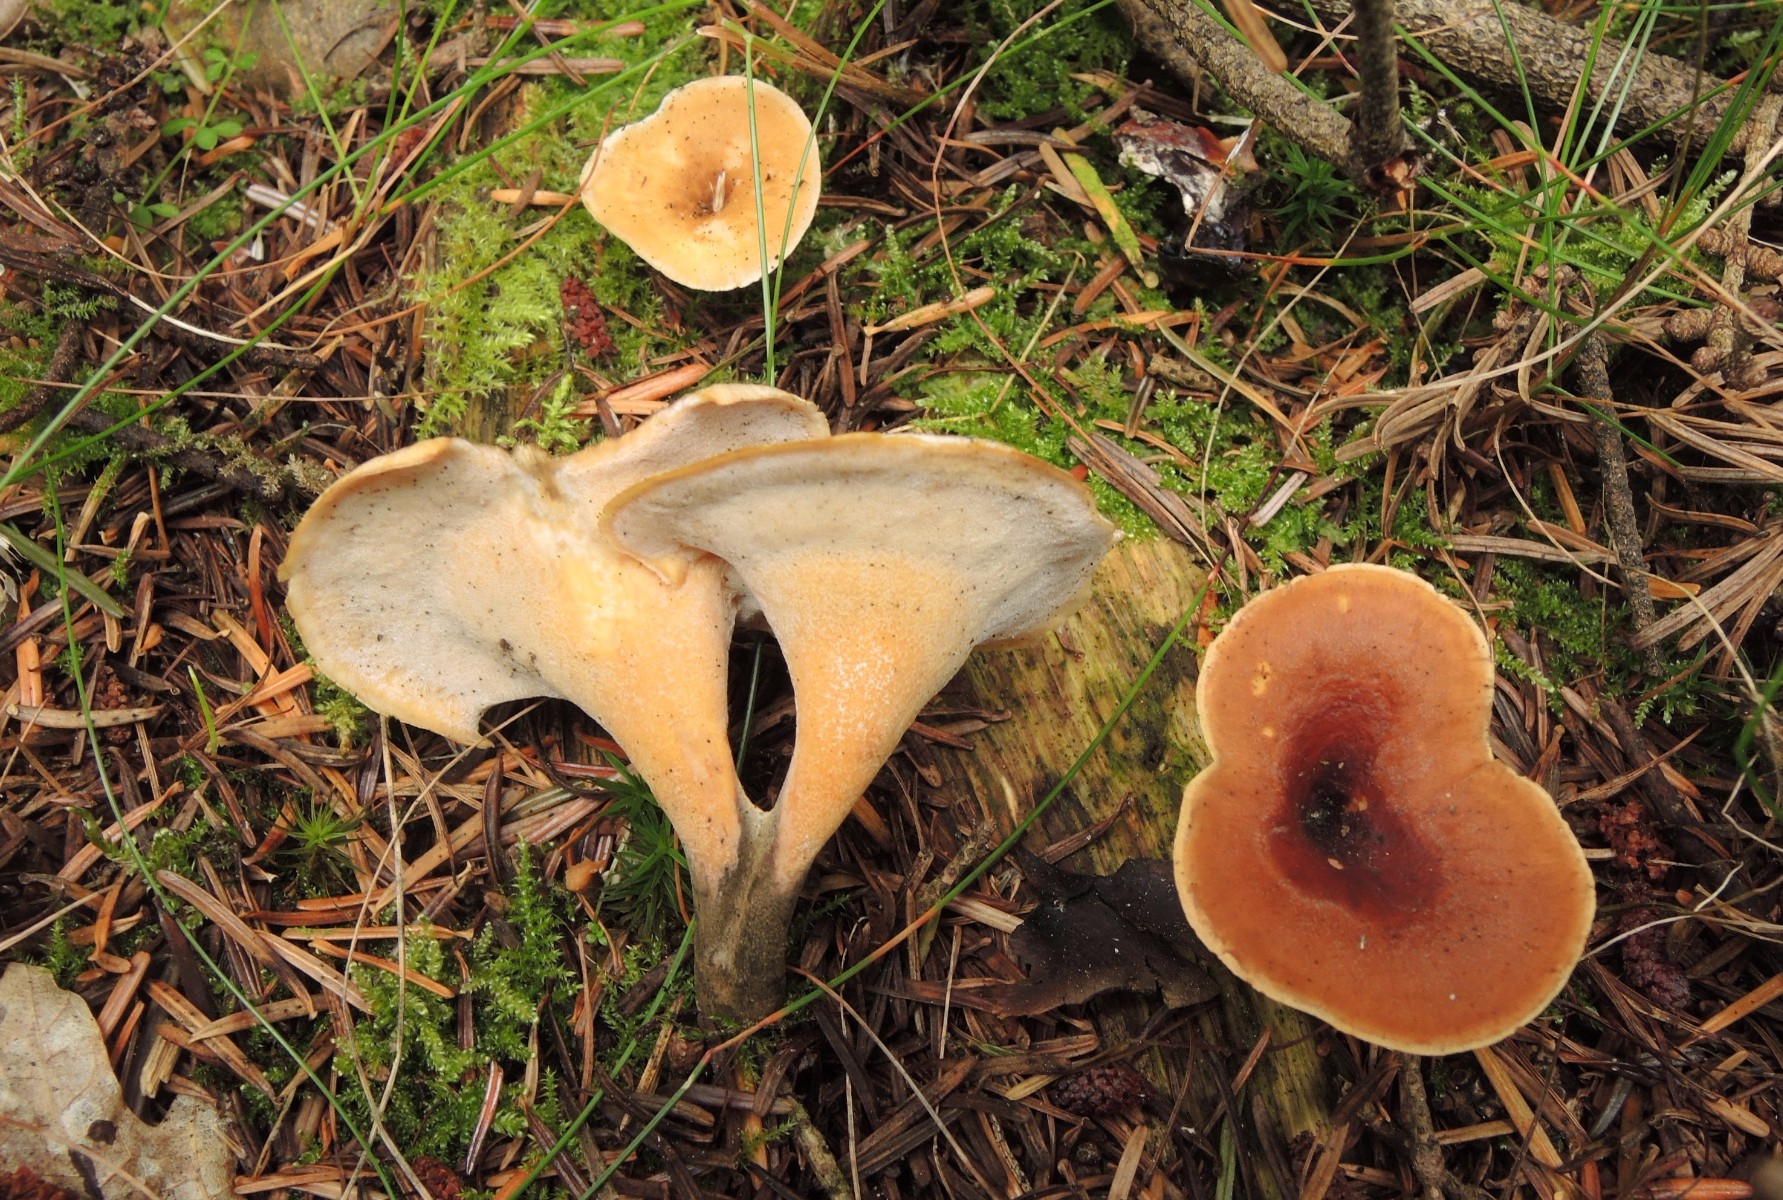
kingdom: Fungi
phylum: Basidiomycota
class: Agaricomycetes
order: Polyporales
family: Polyporaceae
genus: Picipes
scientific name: Picipes tubaeformis
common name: trompet-stilkporesvamp
